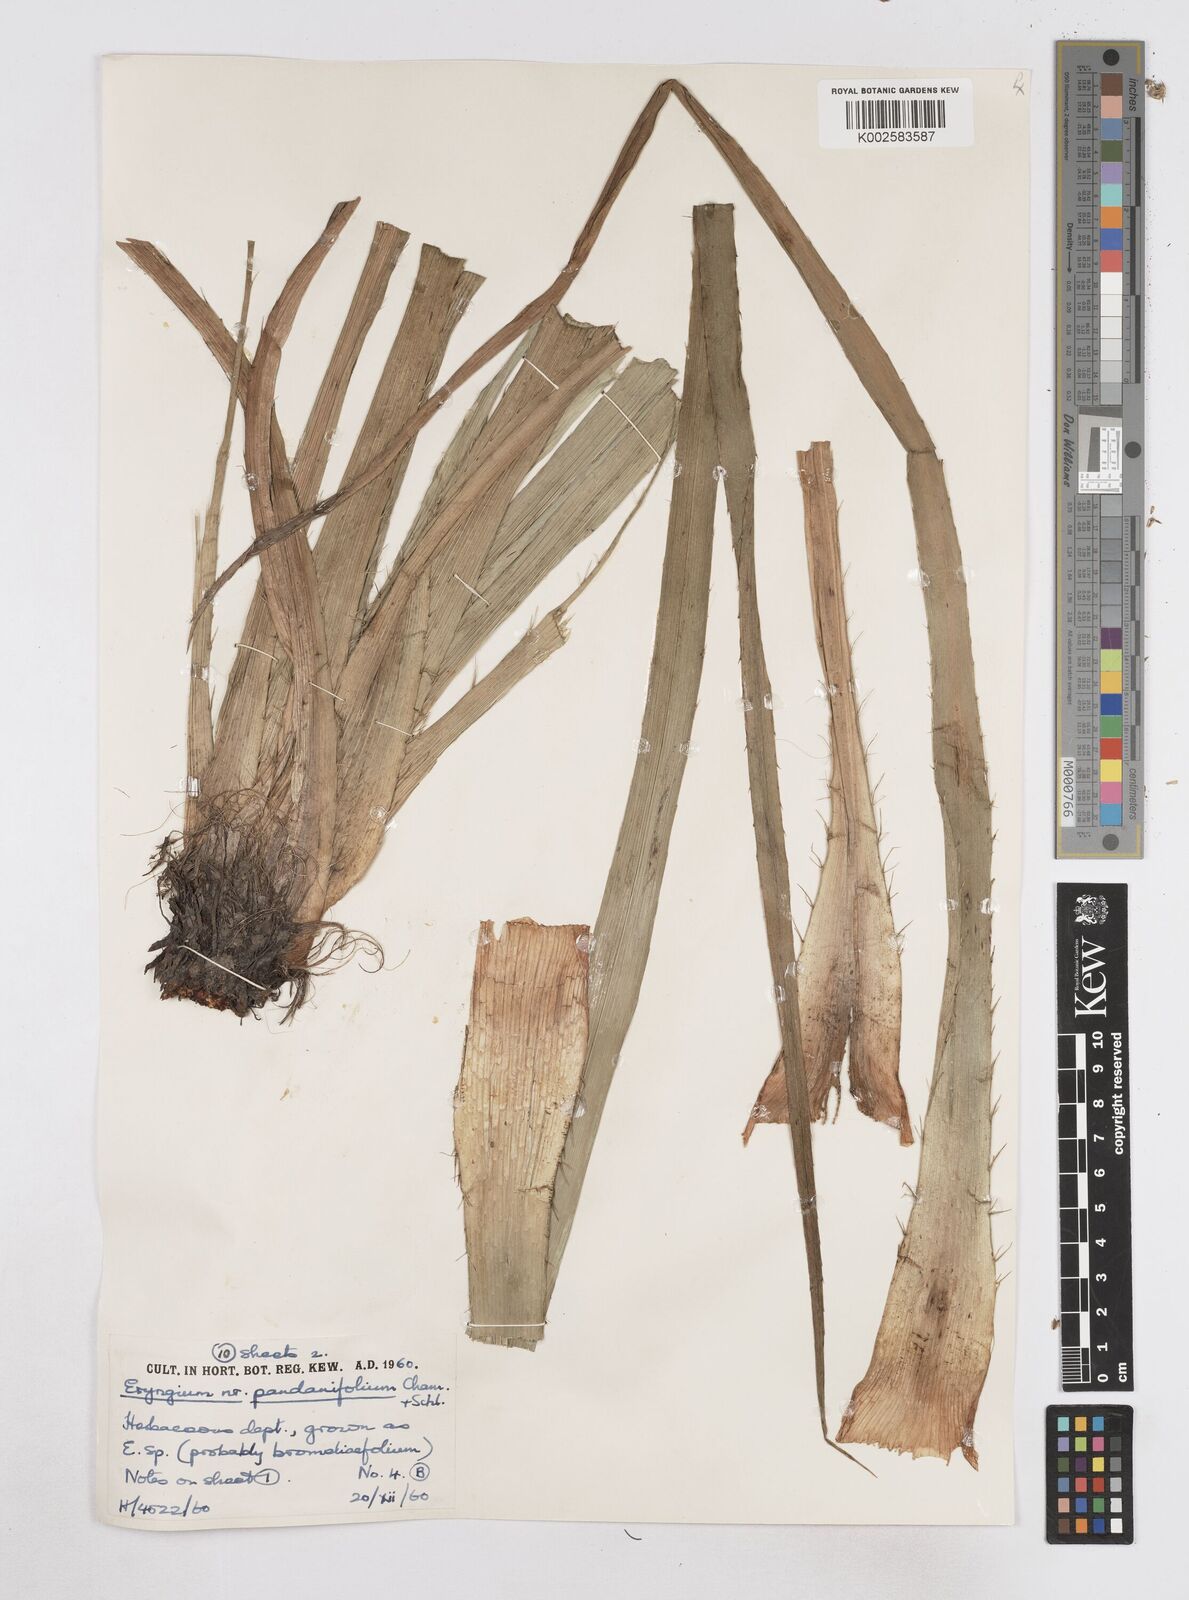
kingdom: Plantae
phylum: Tracheophyta
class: Magnoliopsida
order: Apiales
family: Apiaceae
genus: Eryngium
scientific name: Eryngium pandanifolium
